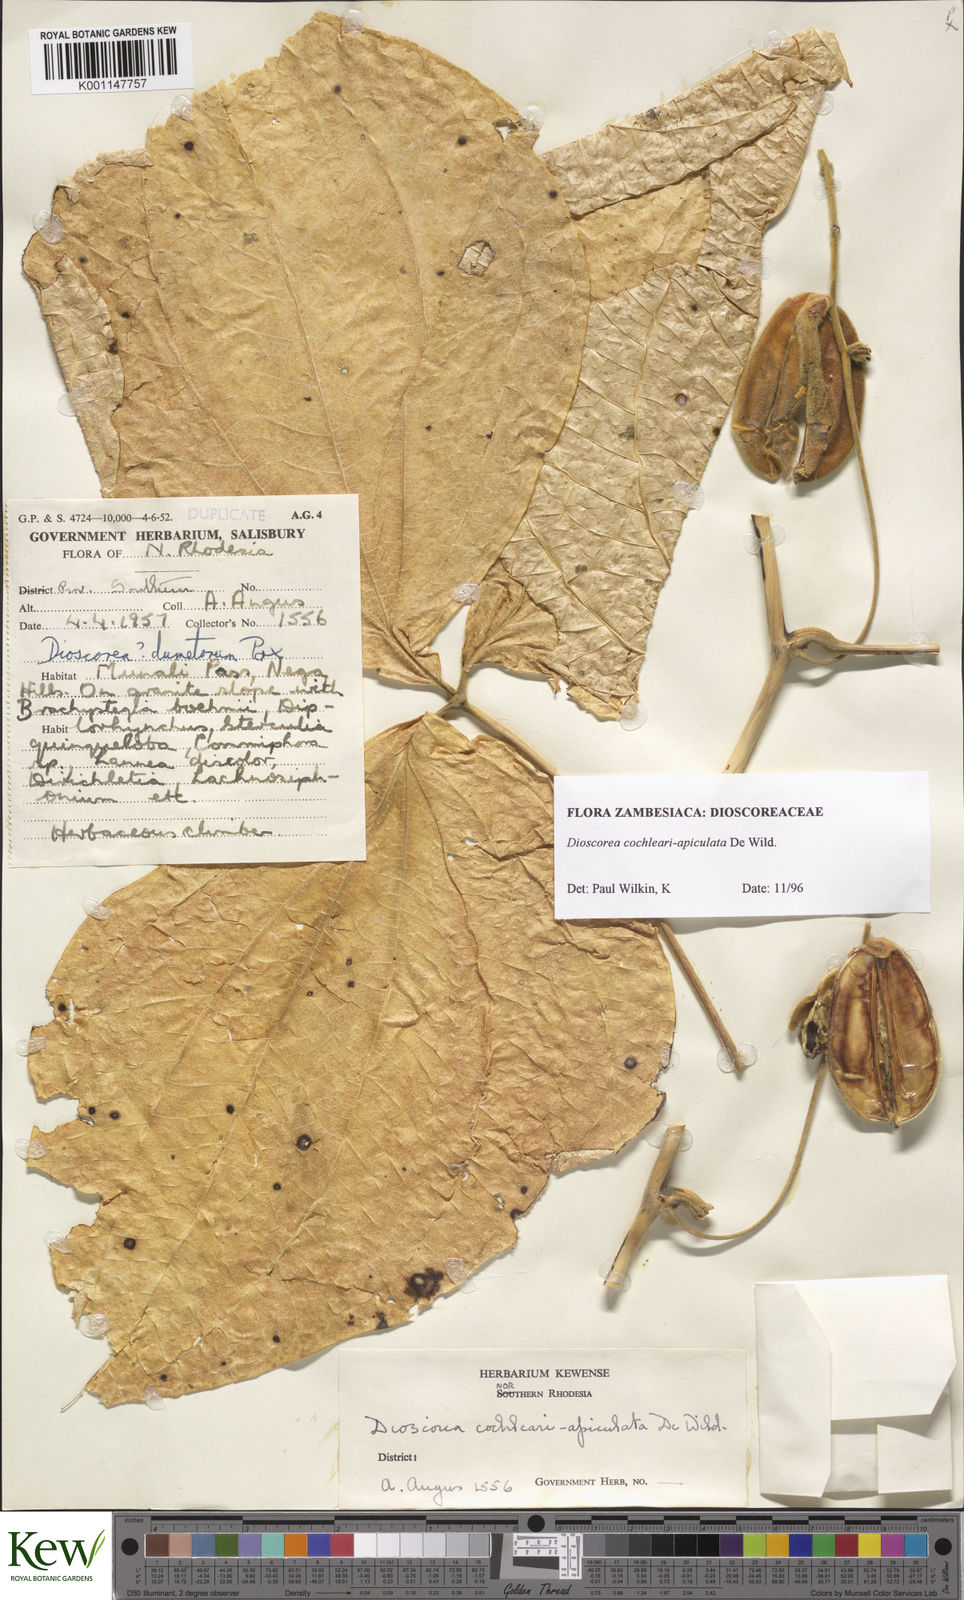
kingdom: Plantae
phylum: Tracheophyta
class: Liliopsida
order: Dioscoreales
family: Dioscoreaceae
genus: Dioscorea
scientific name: Dioscorea cochleariapiculata
